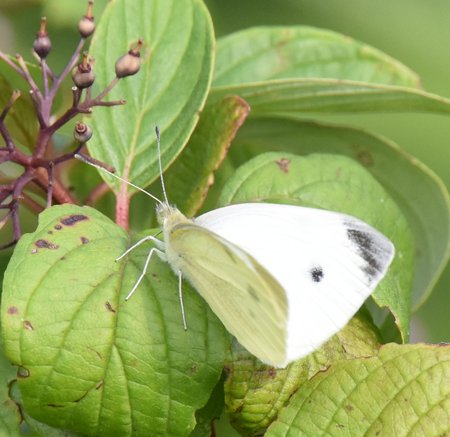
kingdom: Animalia
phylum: Arthropoda
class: Insecta
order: Lepidoptera
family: Pieridae
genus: Pieris
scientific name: Pieris rapae
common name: Cabbage White
